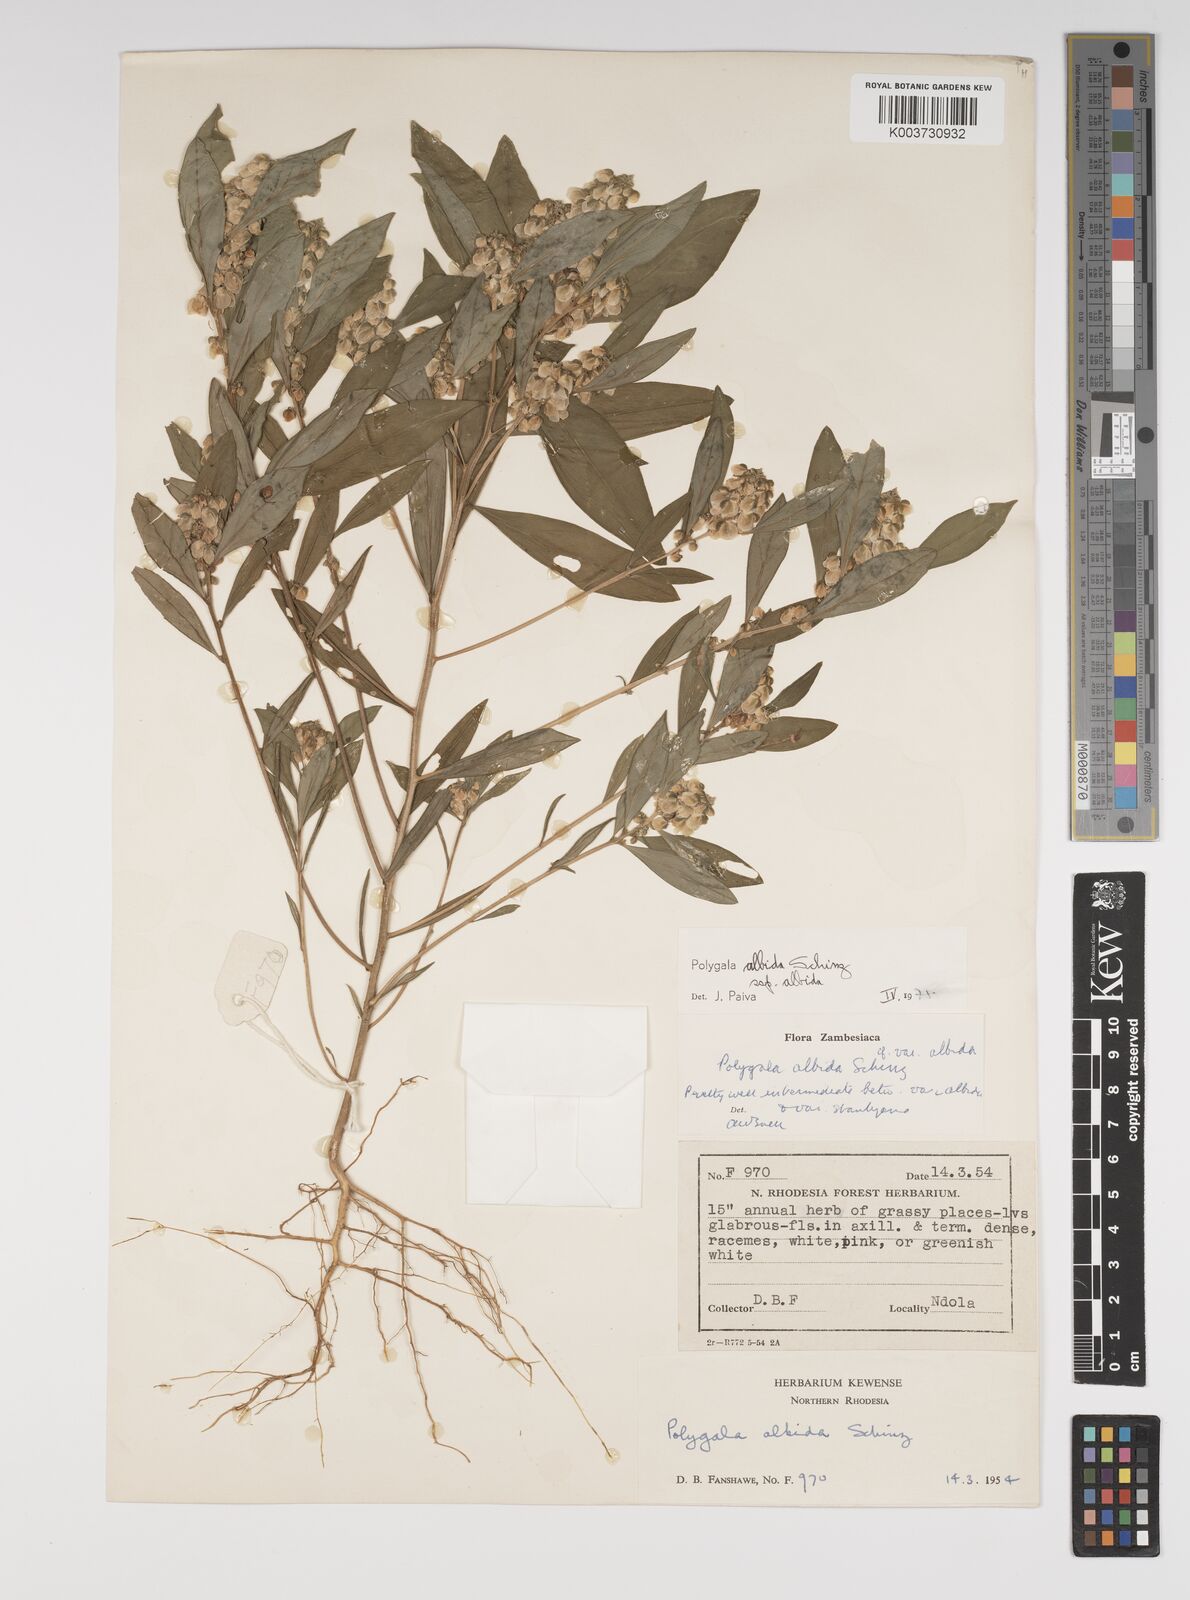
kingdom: Plantae
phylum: Tracheophyta
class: Magnoliopsida
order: Fabales
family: Polygalaceae
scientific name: Polygalaceae
